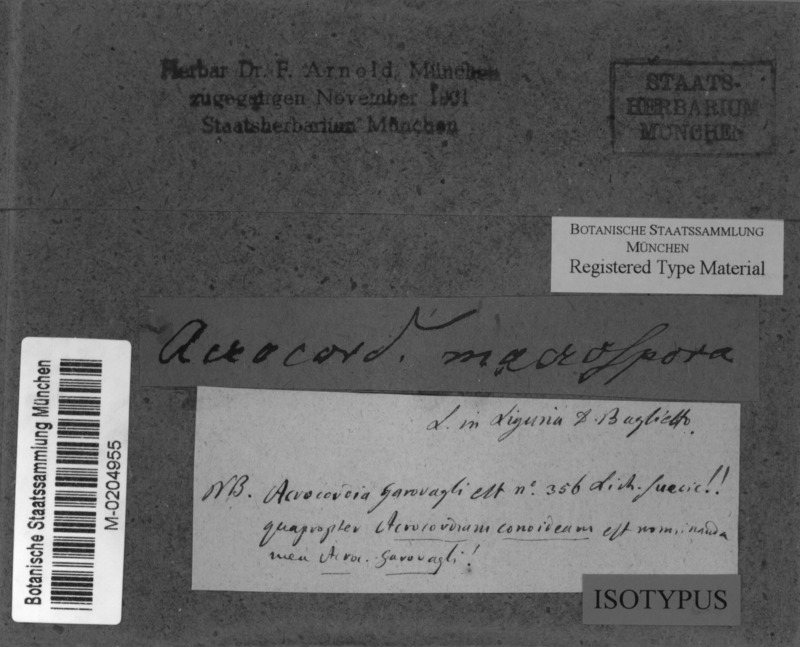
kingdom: Fungi
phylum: Ascomycota
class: Dothideomycetes
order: Monoblastiales
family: Monoblastiaceae
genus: Acrocordia
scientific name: Acrocordia macrospora
